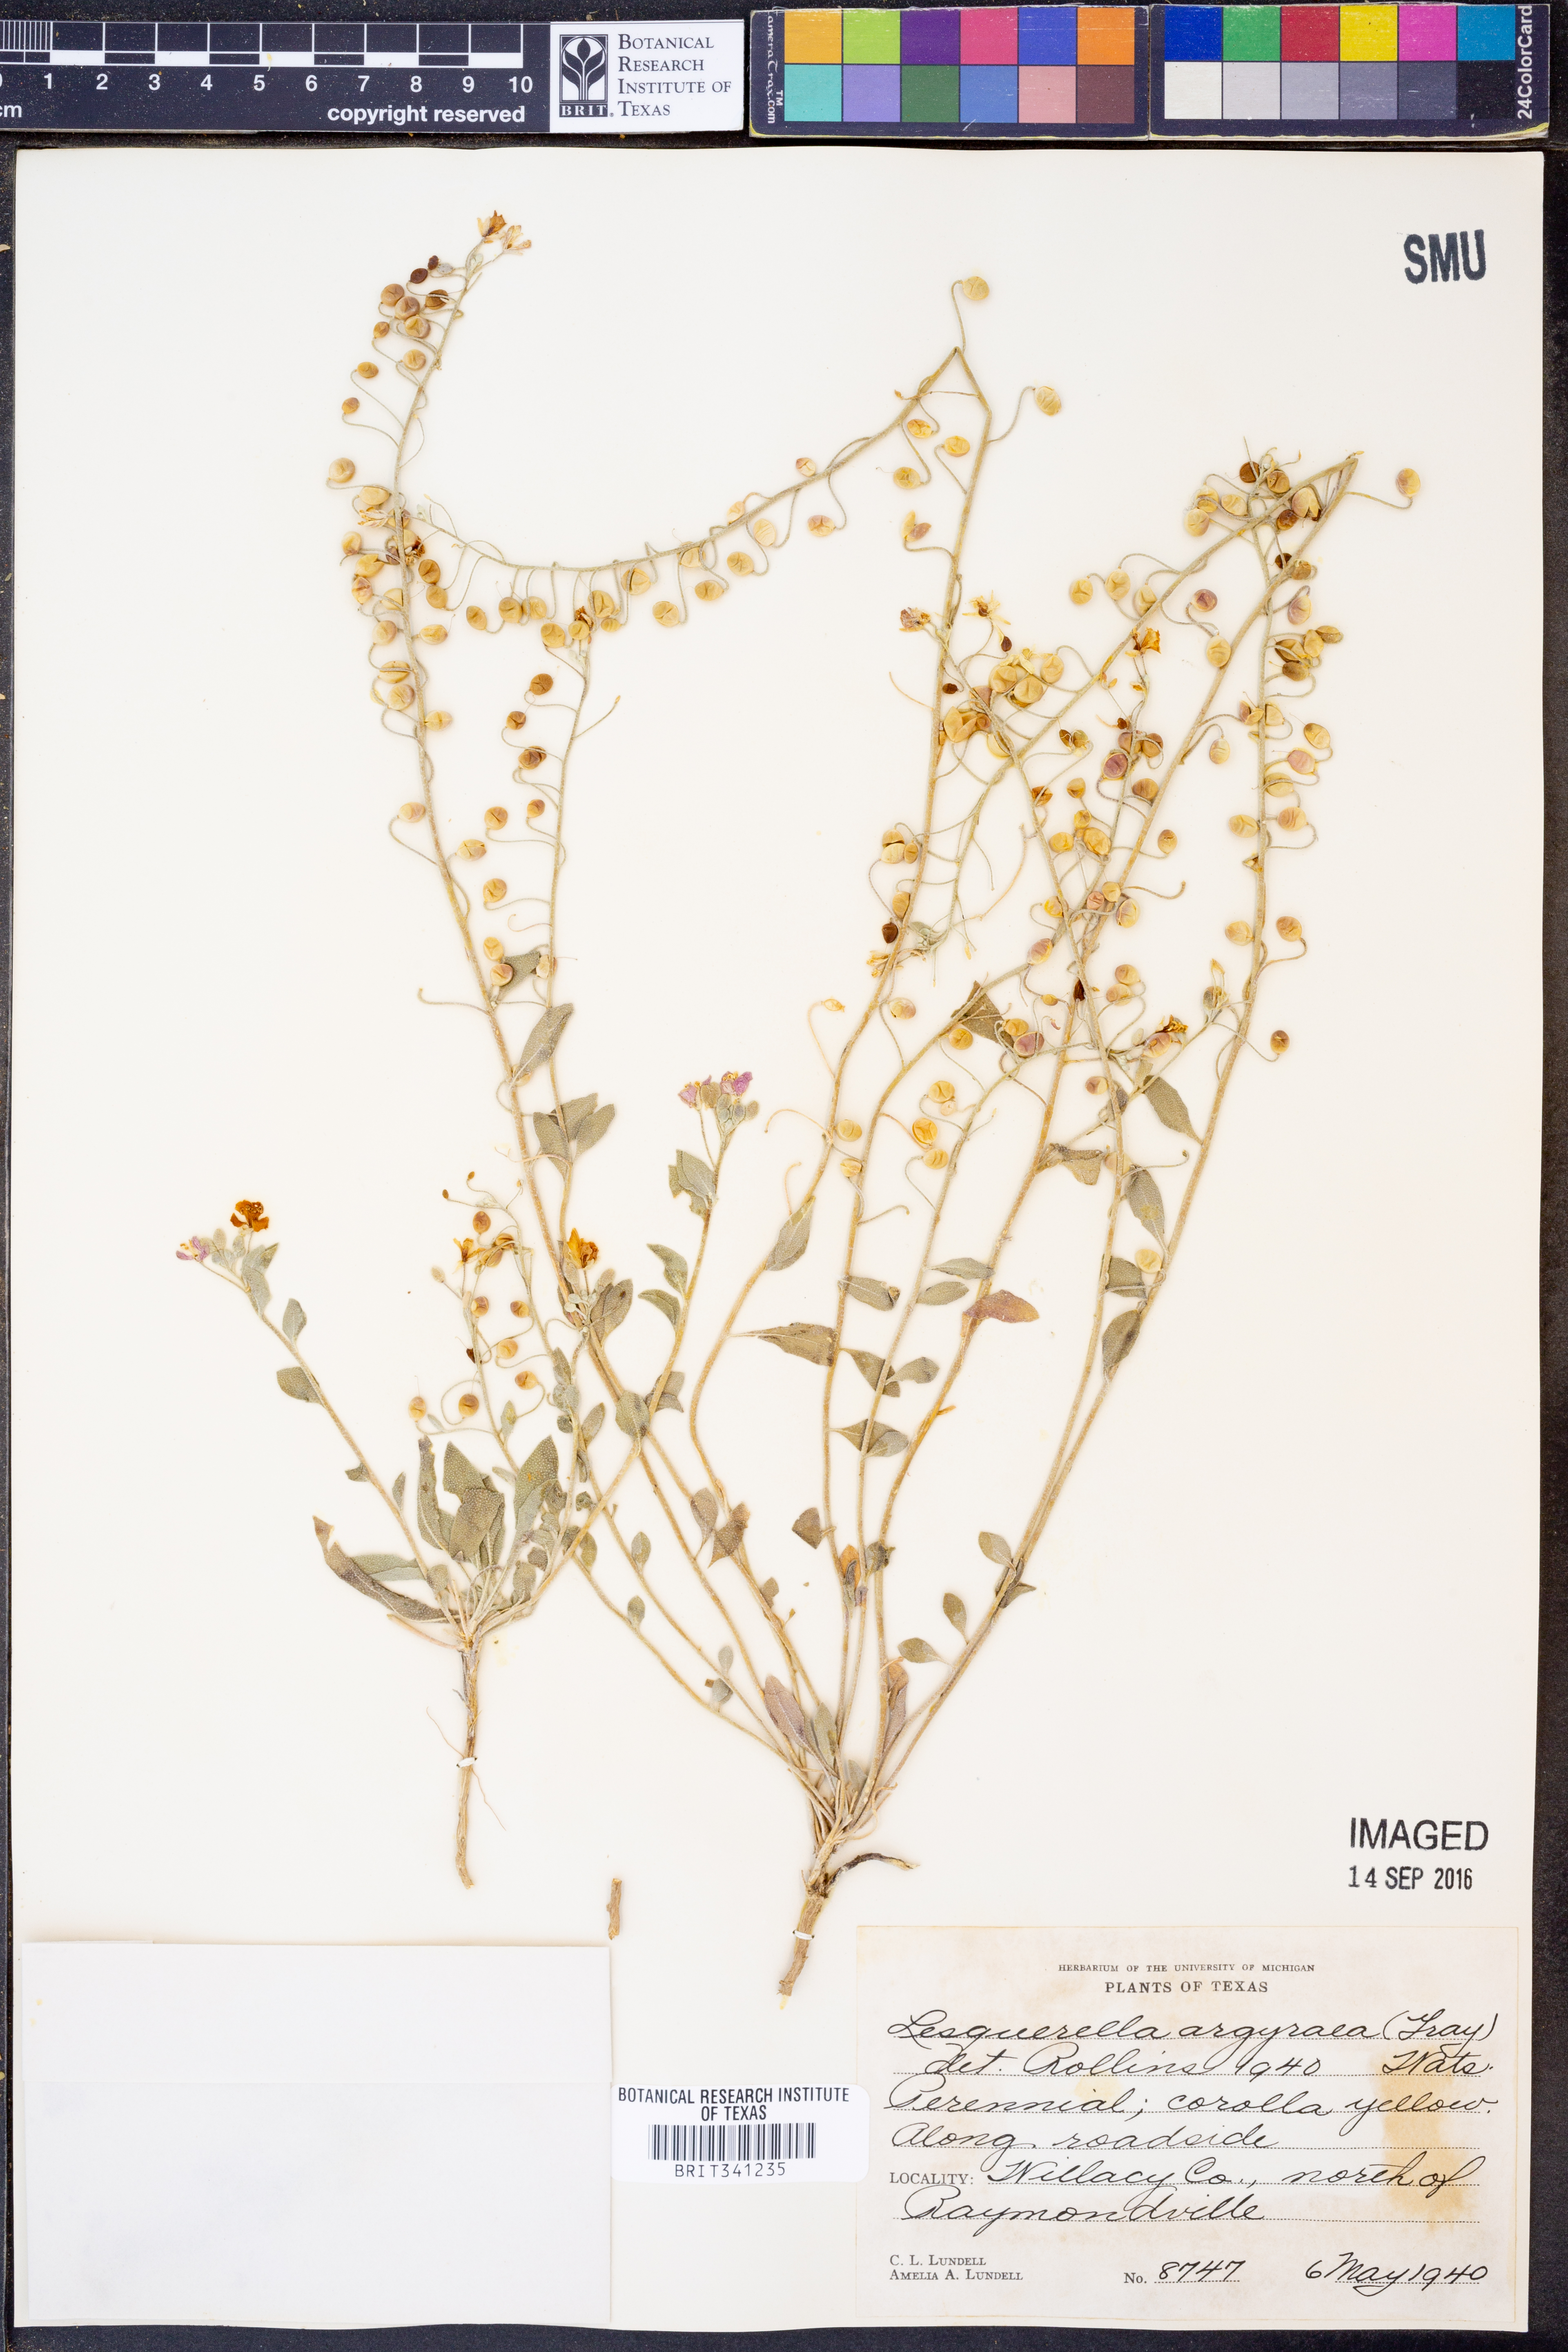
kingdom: Plantae
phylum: Tracheophyta
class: Magnoliopsida
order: Brassicales
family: Brassicaceae
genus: Physaria
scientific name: Physaria argyraea
